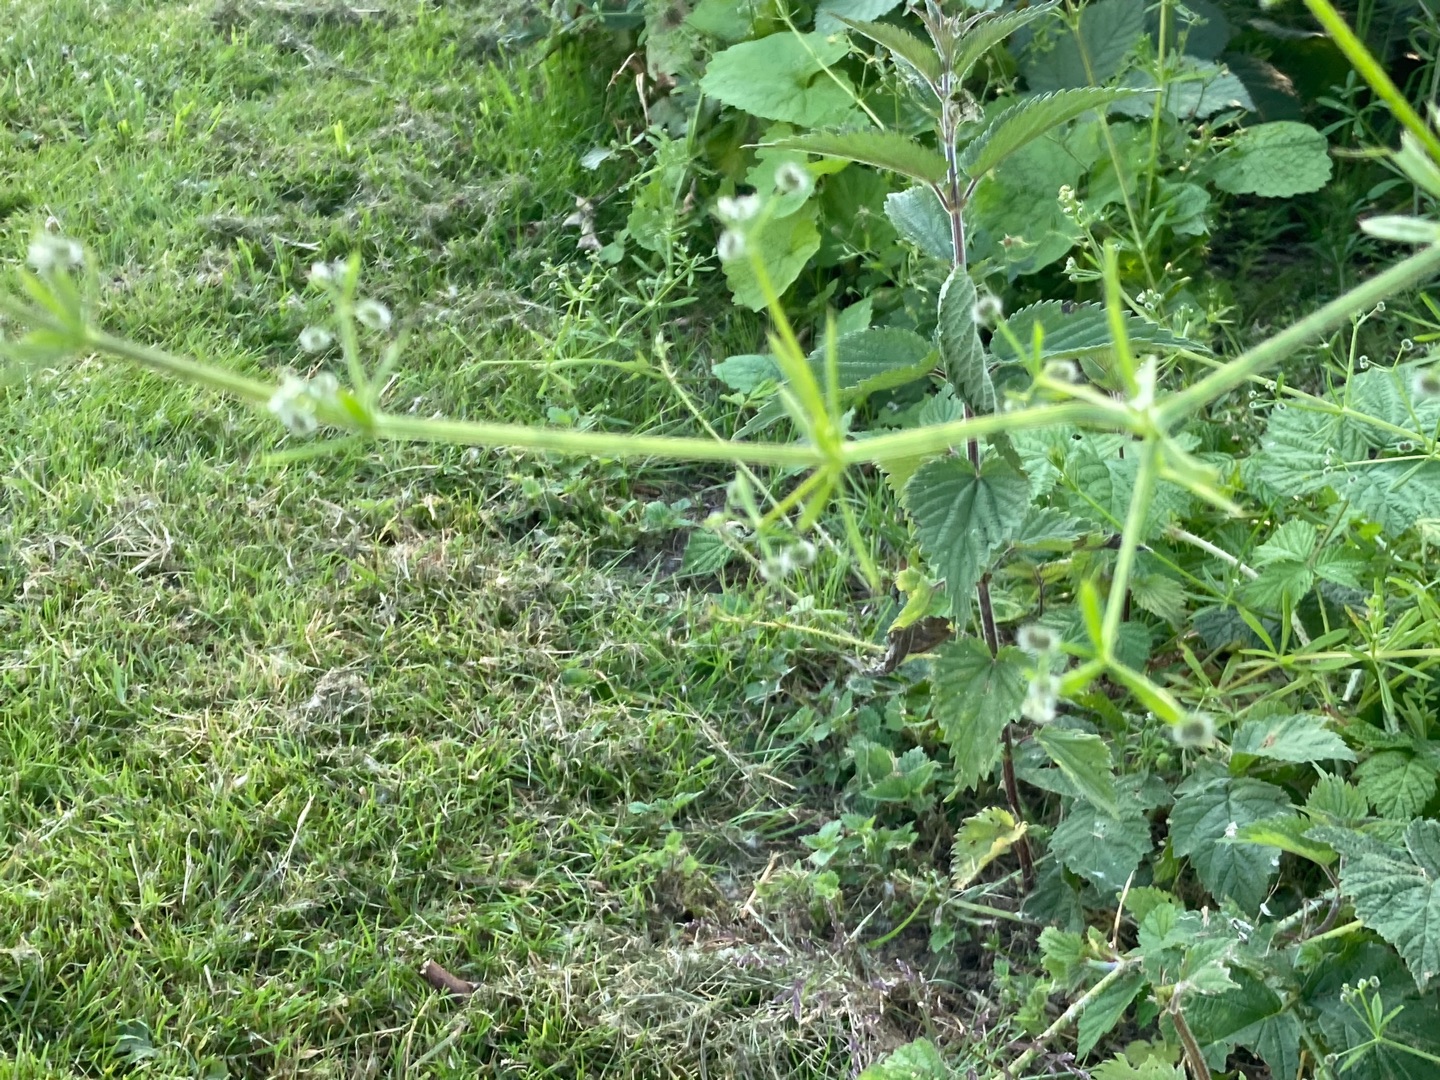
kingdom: Plantae
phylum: Tracheophyta
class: Magnoliopsida
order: Gentianales
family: Rubiaceae
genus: Galium
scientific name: Galium aparine
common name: Burre-snerre
